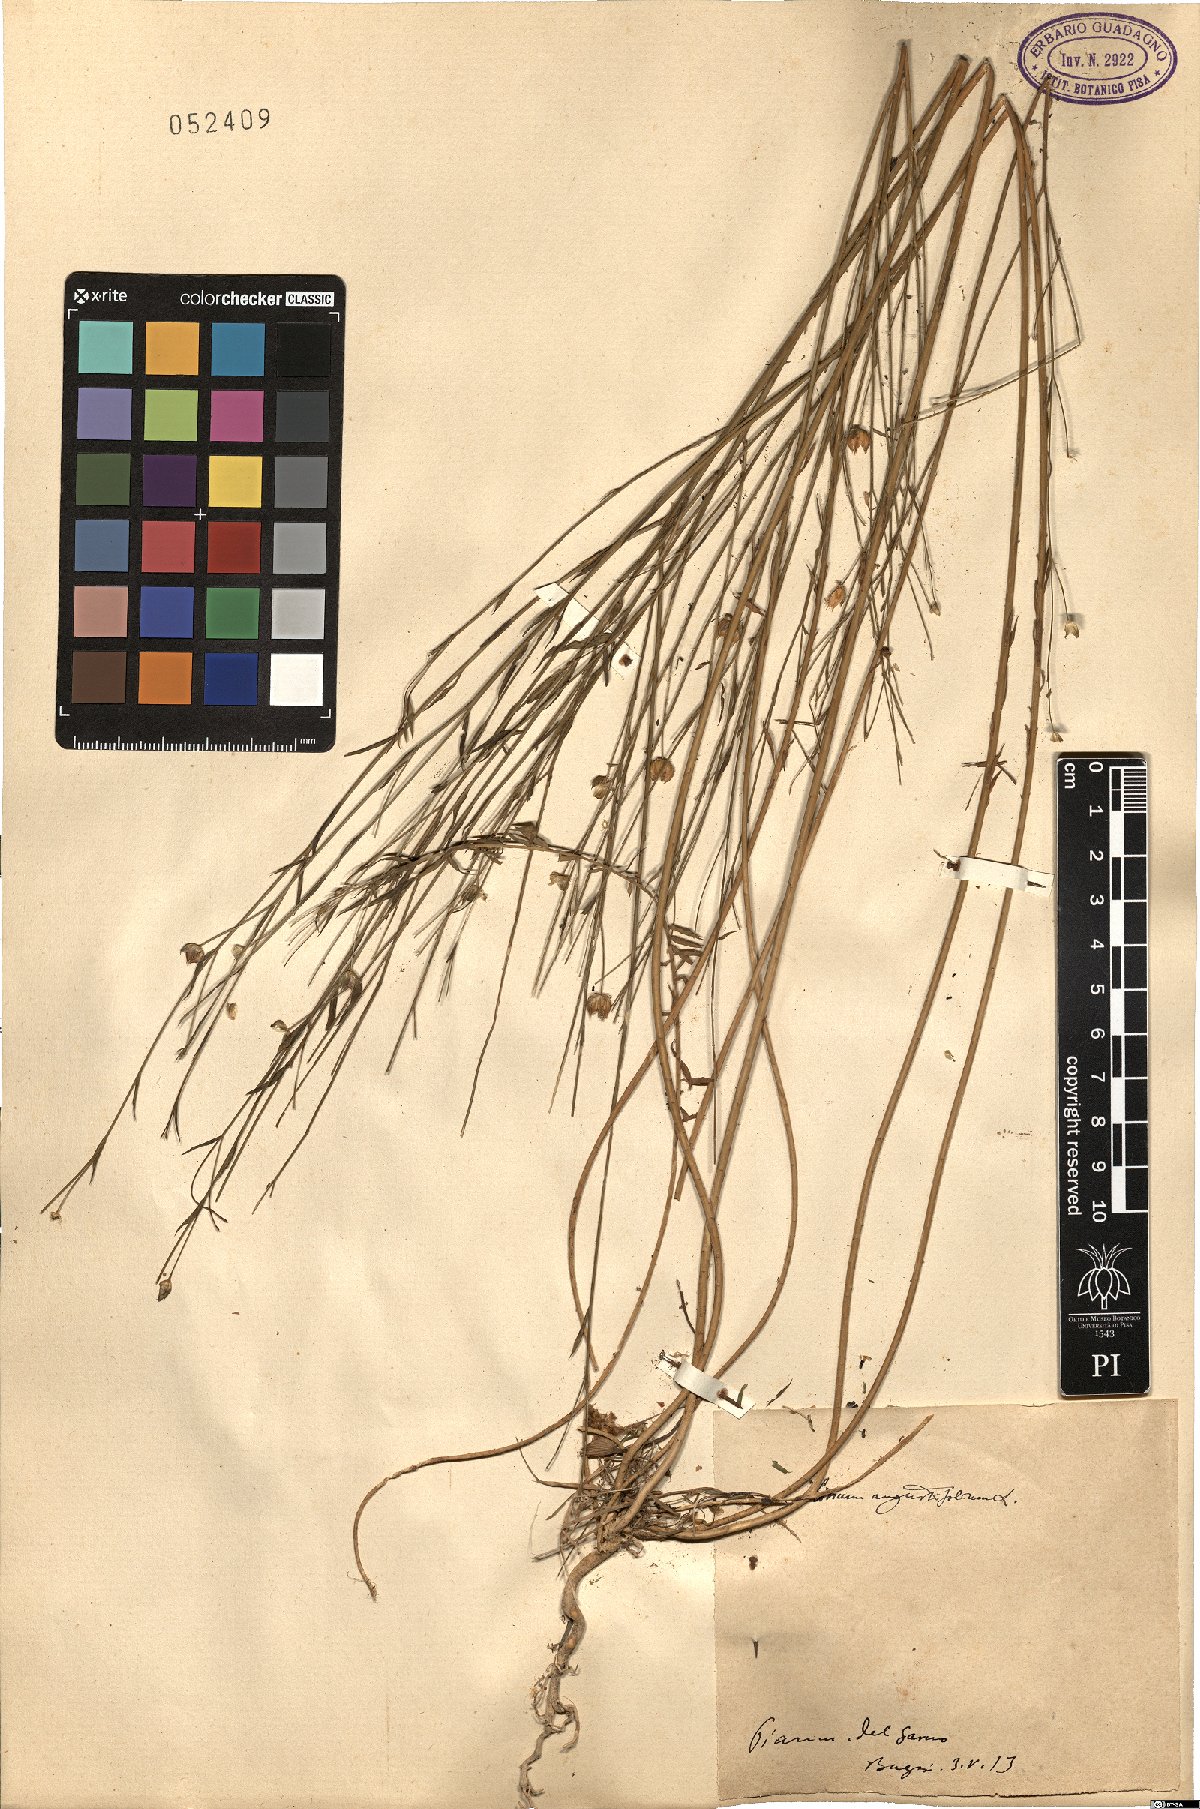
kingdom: Plantae
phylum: Tracheophyta
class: Magnoliopsida
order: Malpighiales
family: Linaceae
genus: Linum
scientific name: Linum bienne
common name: Pale flax
